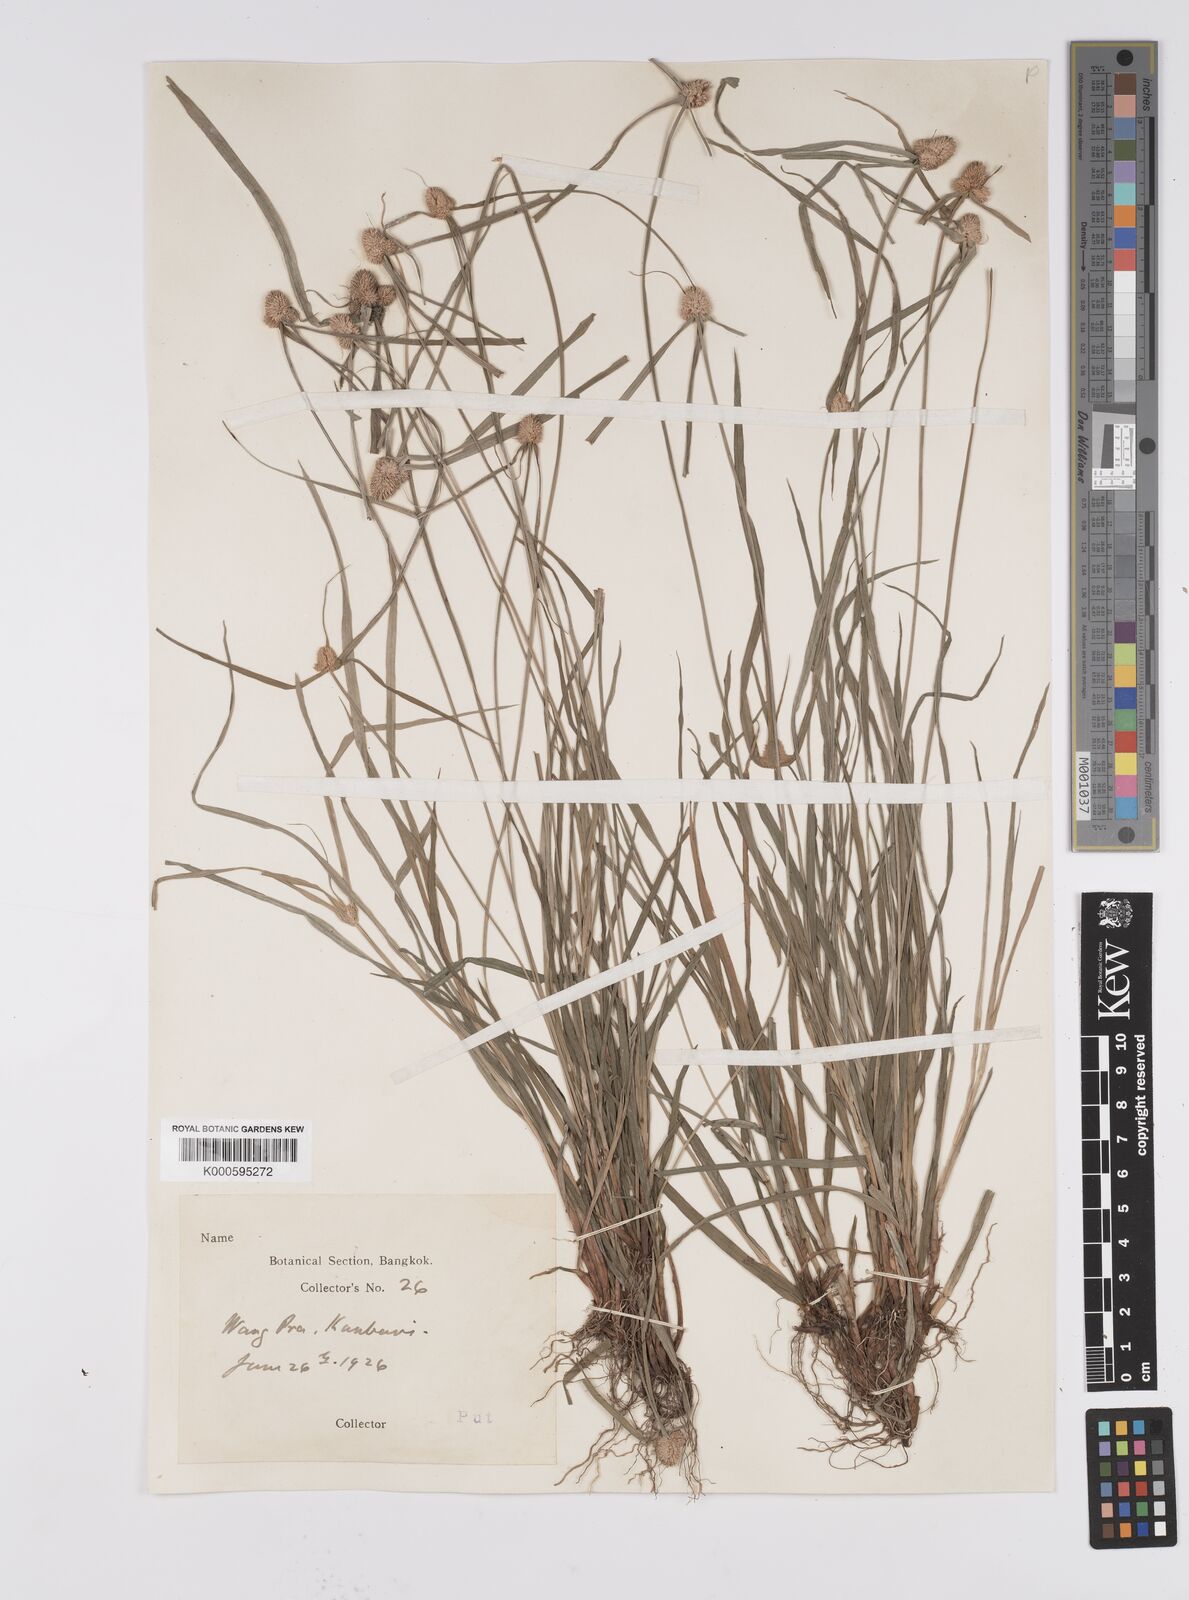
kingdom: Plantae
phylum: Tracheophyta
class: Liliopsida
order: Poales
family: Cyperaceae
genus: Cyperus
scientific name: Cyperus mindorensis
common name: Flatsedge
